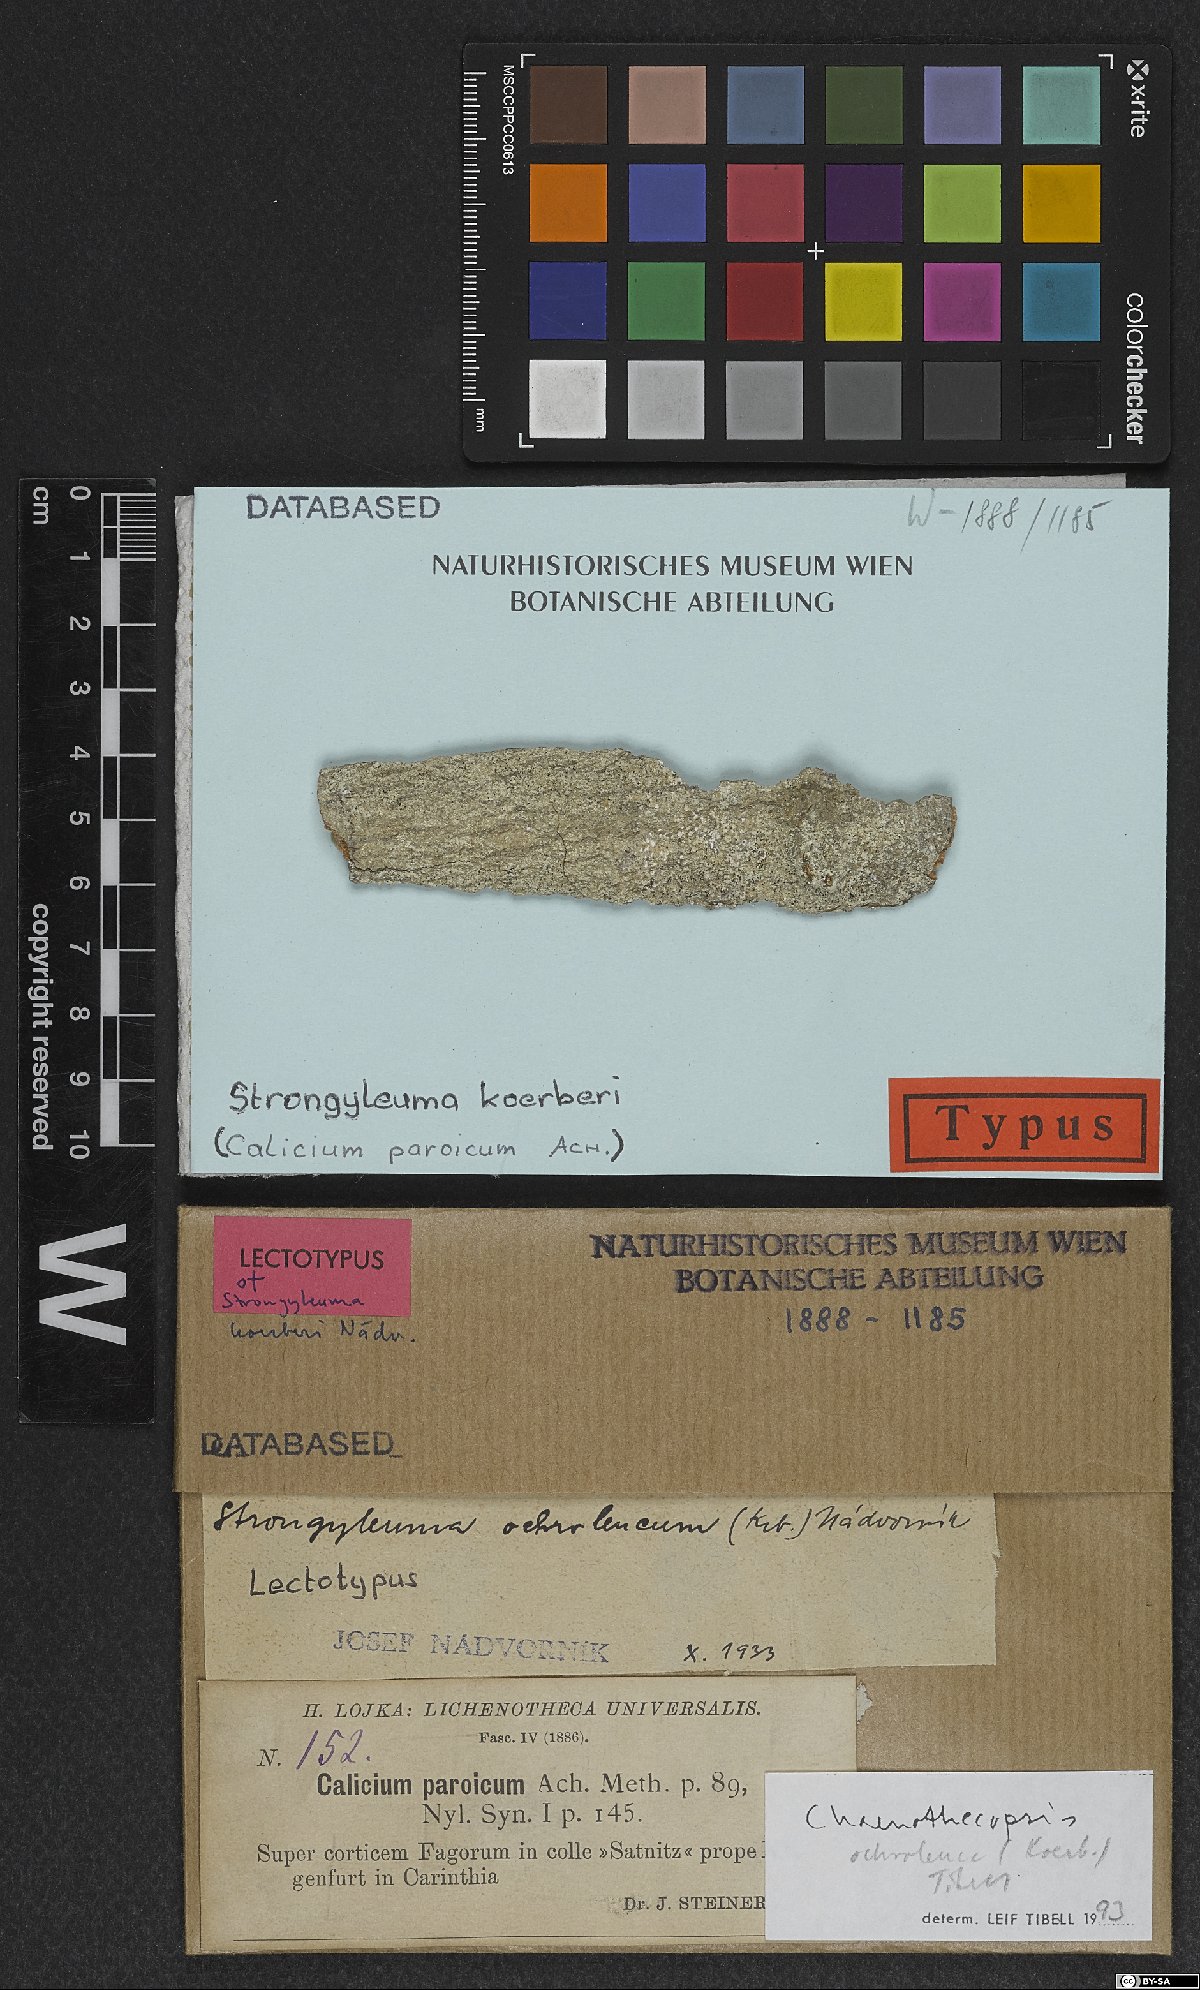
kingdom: Fungi
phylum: Ascomycota
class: Eurotiomycetes
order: Mycocaliciales
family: Mycocaliciaceae
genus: Chaenothecopsis
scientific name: Chaenothecopsis koerberi
